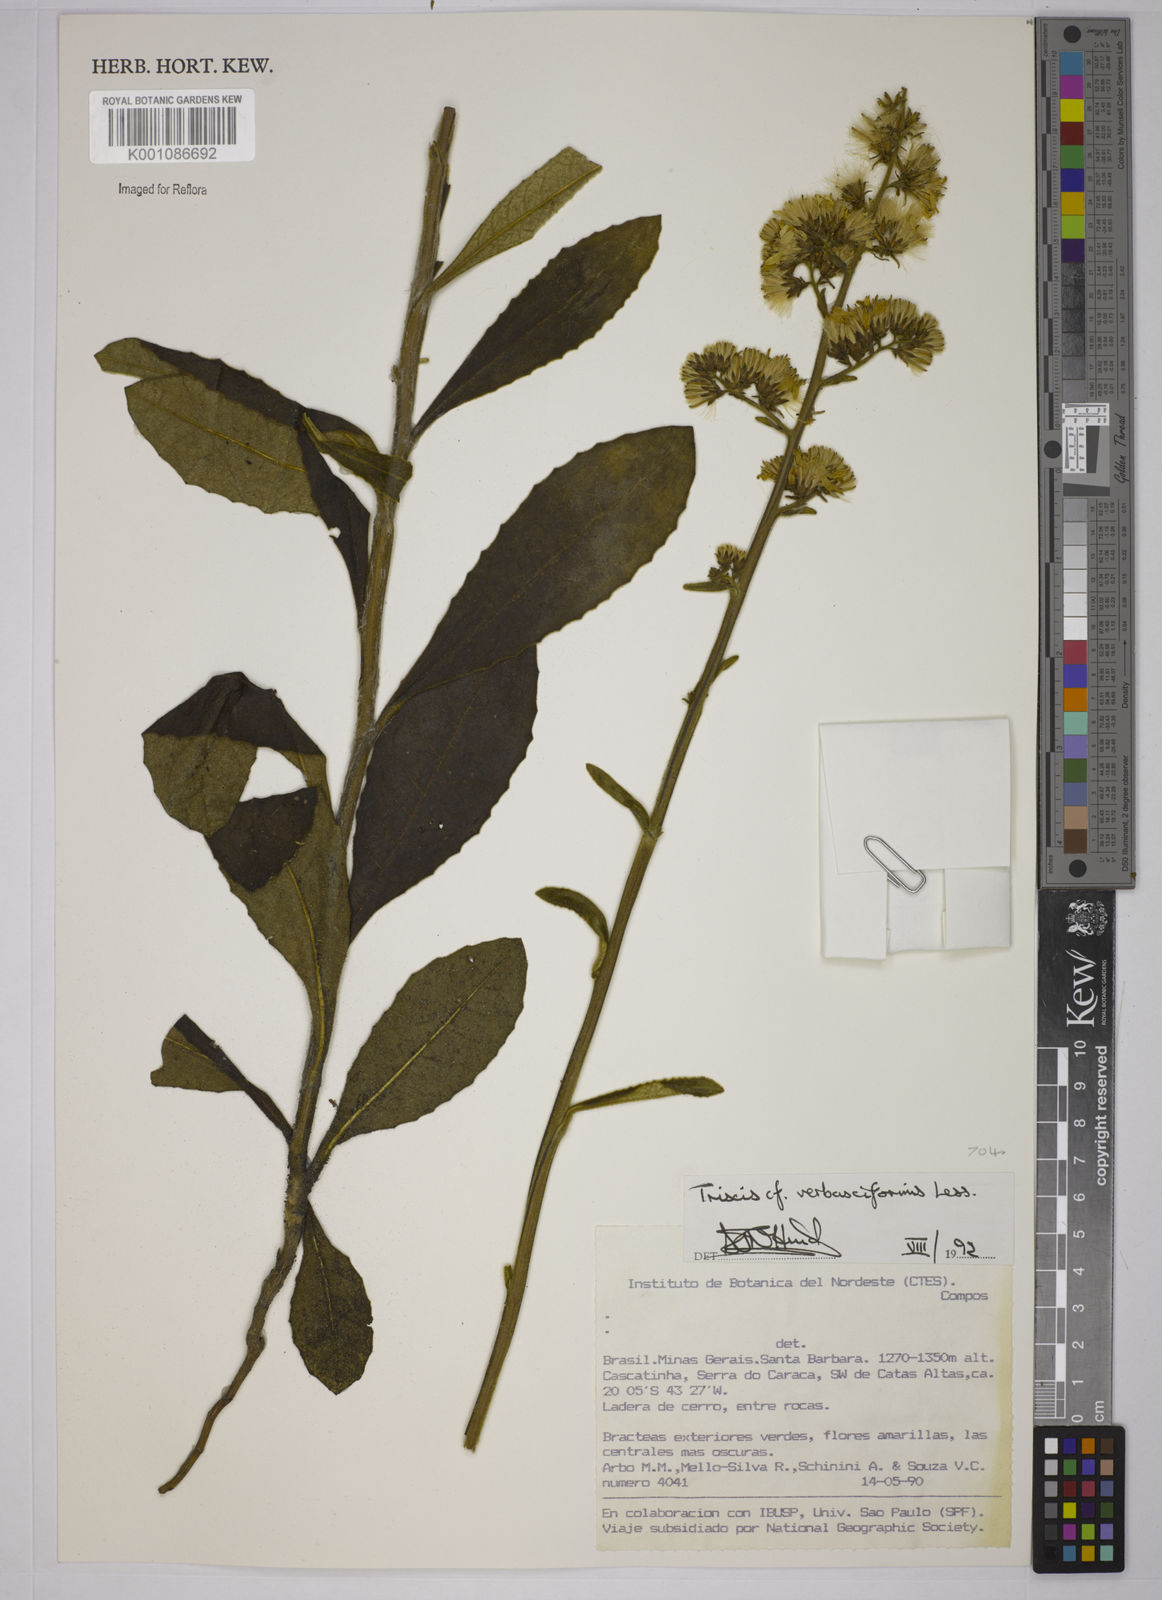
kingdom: Plantae
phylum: Tracheophyta
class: Magnoliopsida
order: Asterales
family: Asteraceae
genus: Trixis
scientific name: Trixis nobilis
